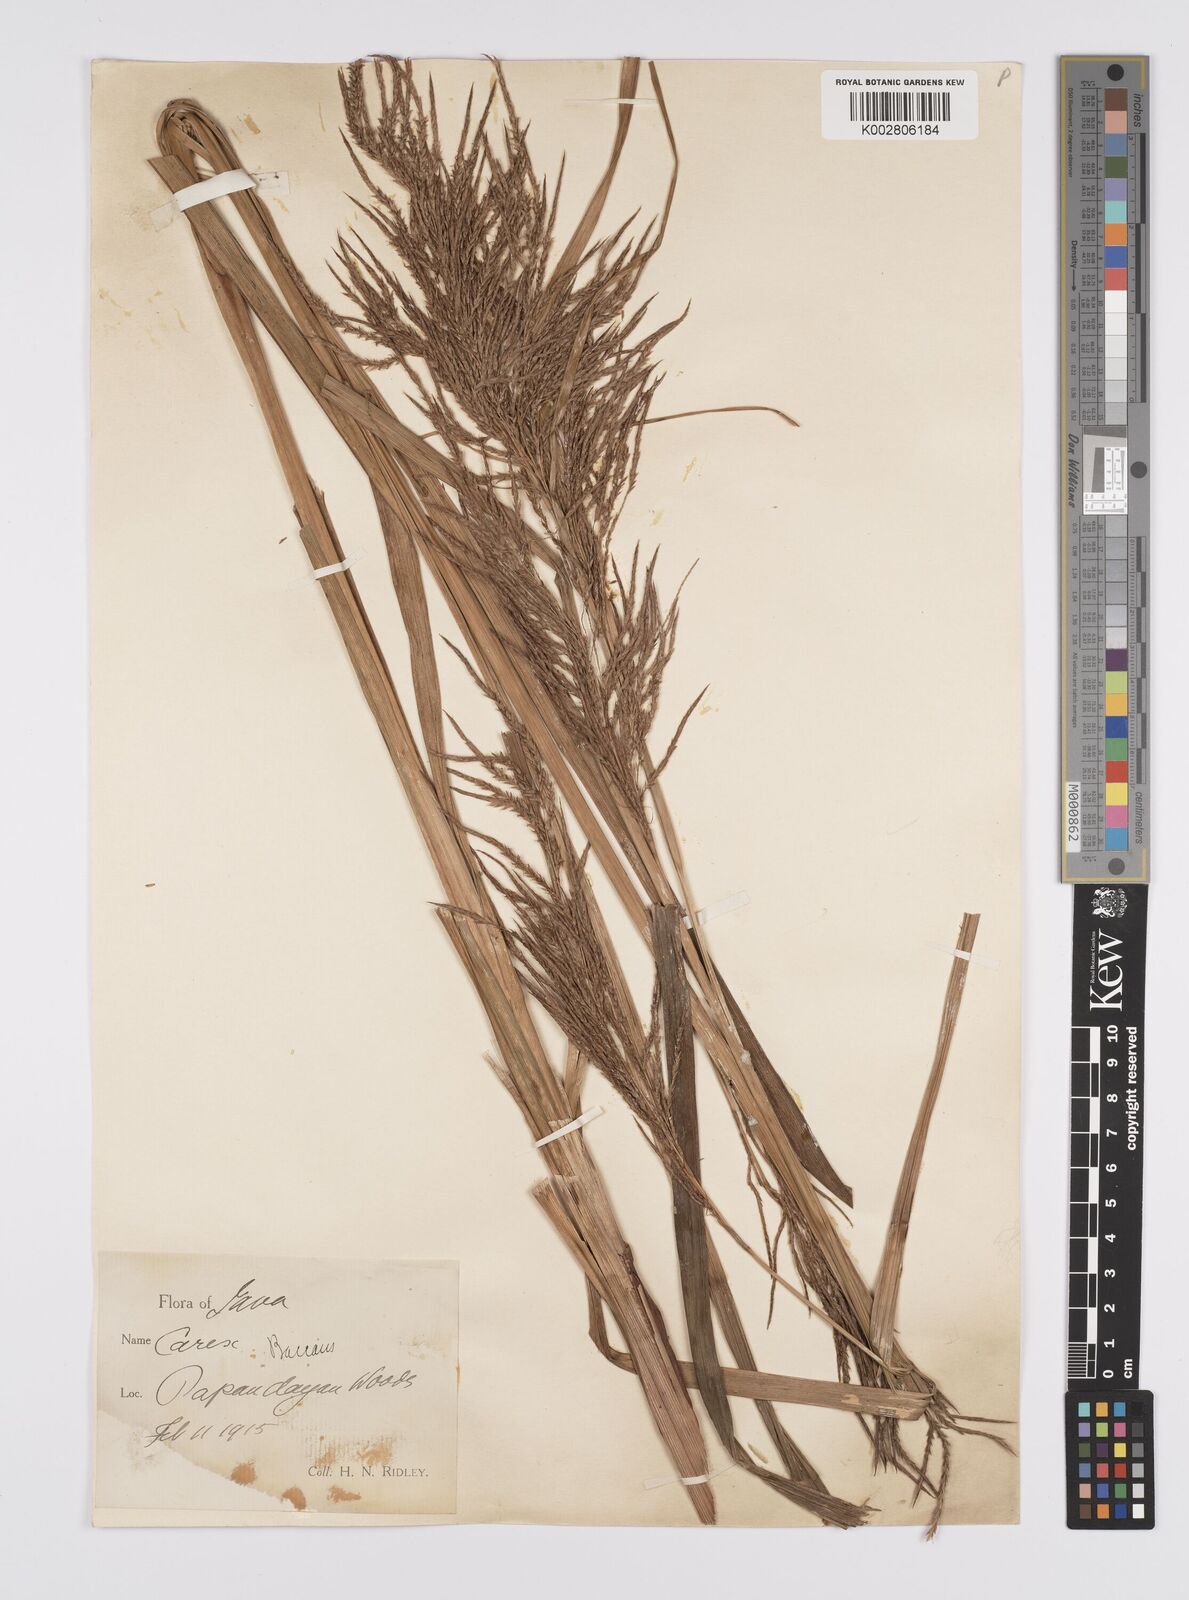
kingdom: Plantae
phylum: Tracheophyta
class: Liliopsida
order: Poales
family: Cyperaceae
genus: Carex
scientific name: Carex baccans
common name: Crimson seeded sedge
